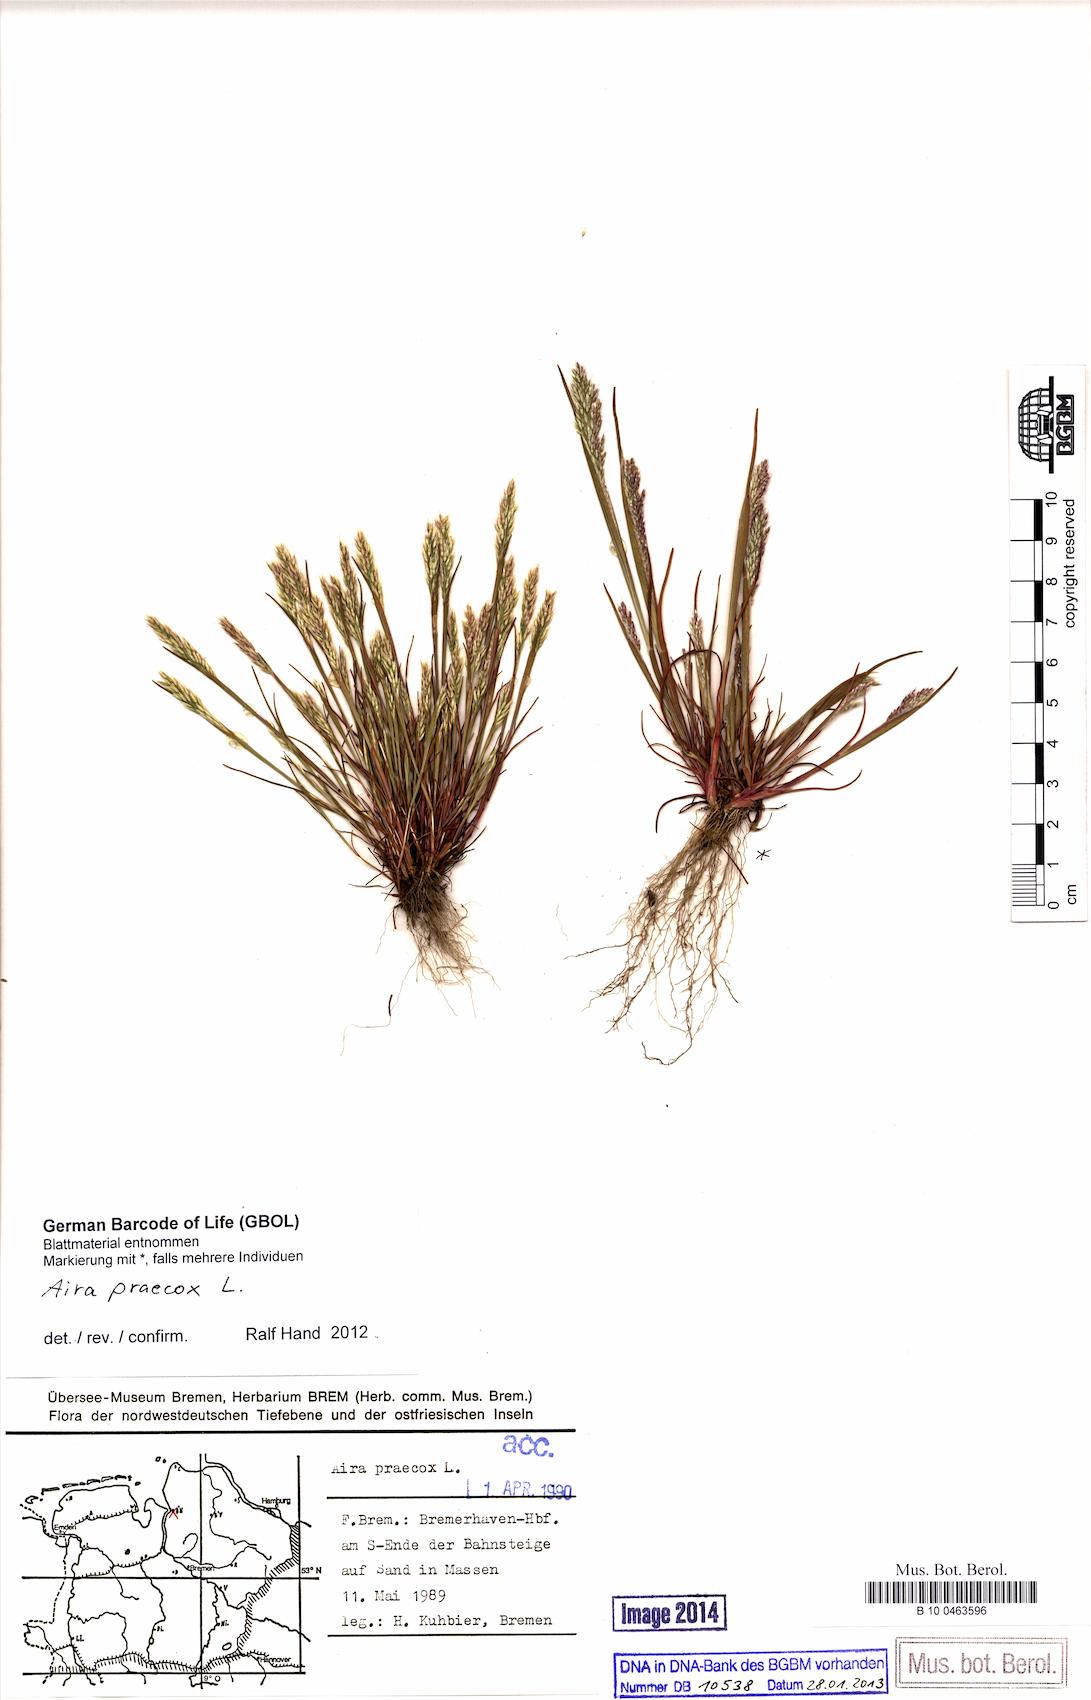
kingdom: Plantae
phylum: Tracheophyta
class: Liliopsida
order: Poales
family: Poaceae
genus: Aira
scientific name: Aira praecox
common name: Early hair-grass
